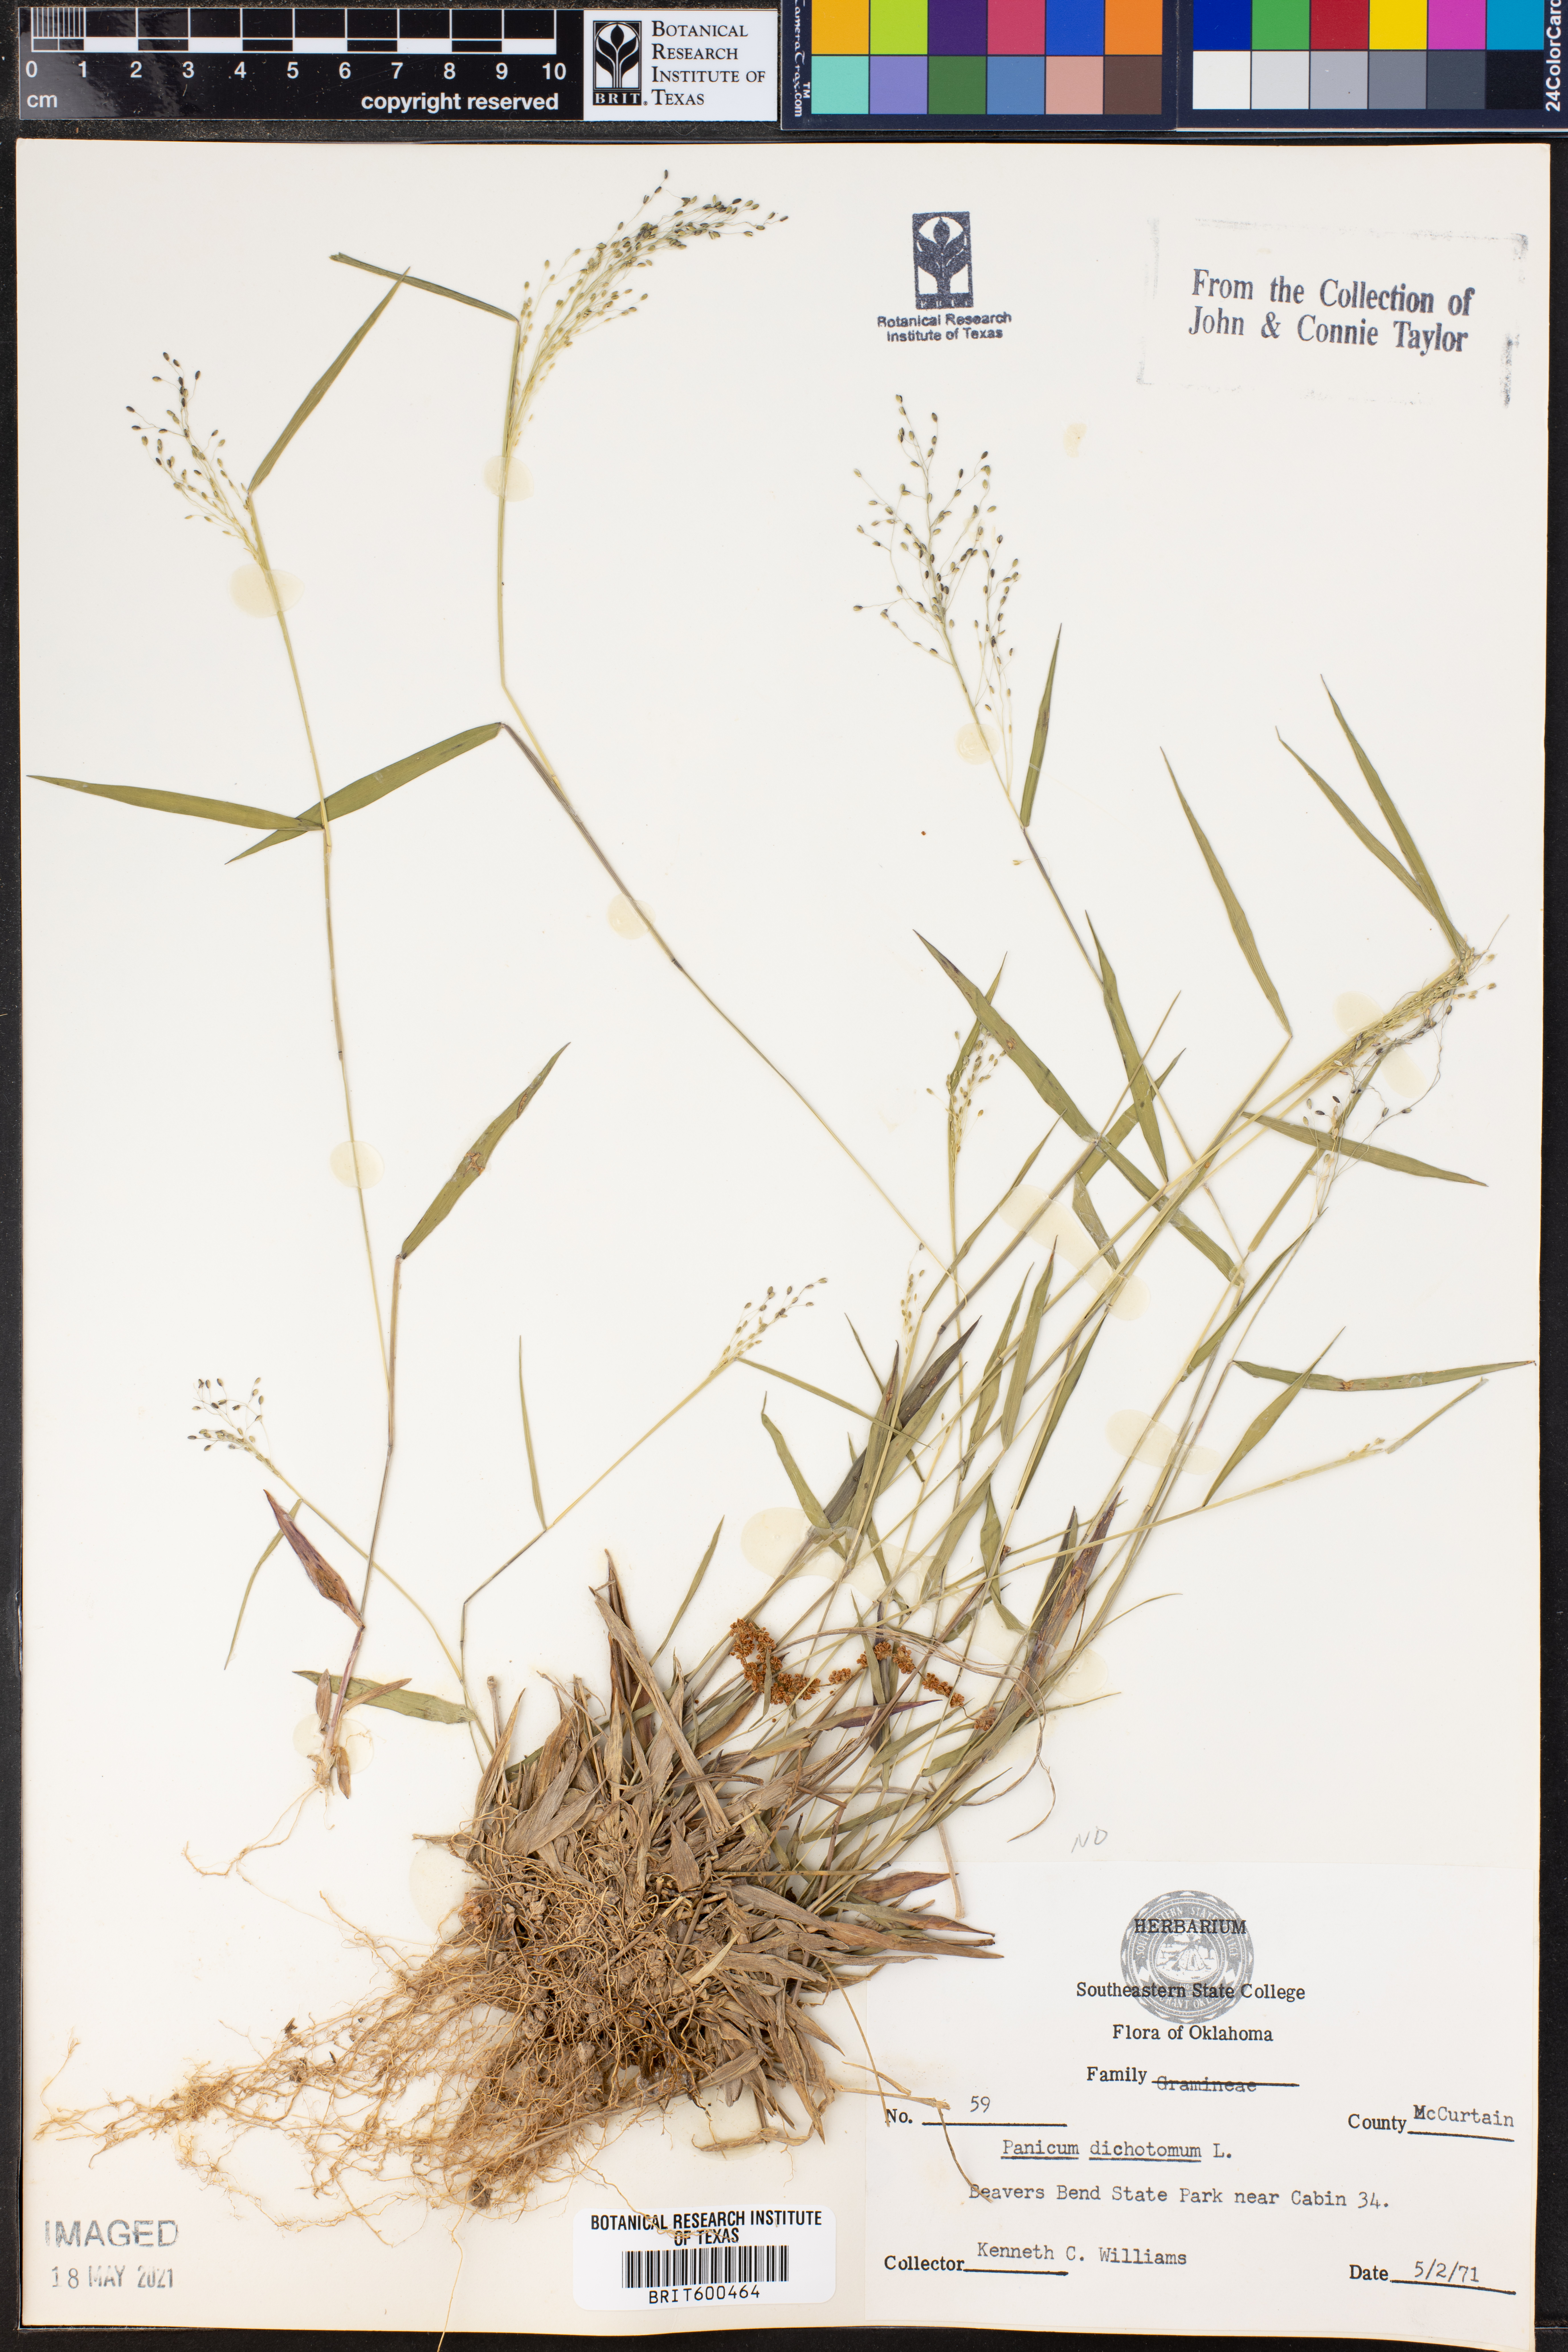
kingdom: Plantae
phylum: Tracheophyta
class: Liliopsida
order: Poales
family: Poaceae
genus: Dichanthelium
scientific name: Dichanthelium dichotomum
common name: Cypress panicgrass
